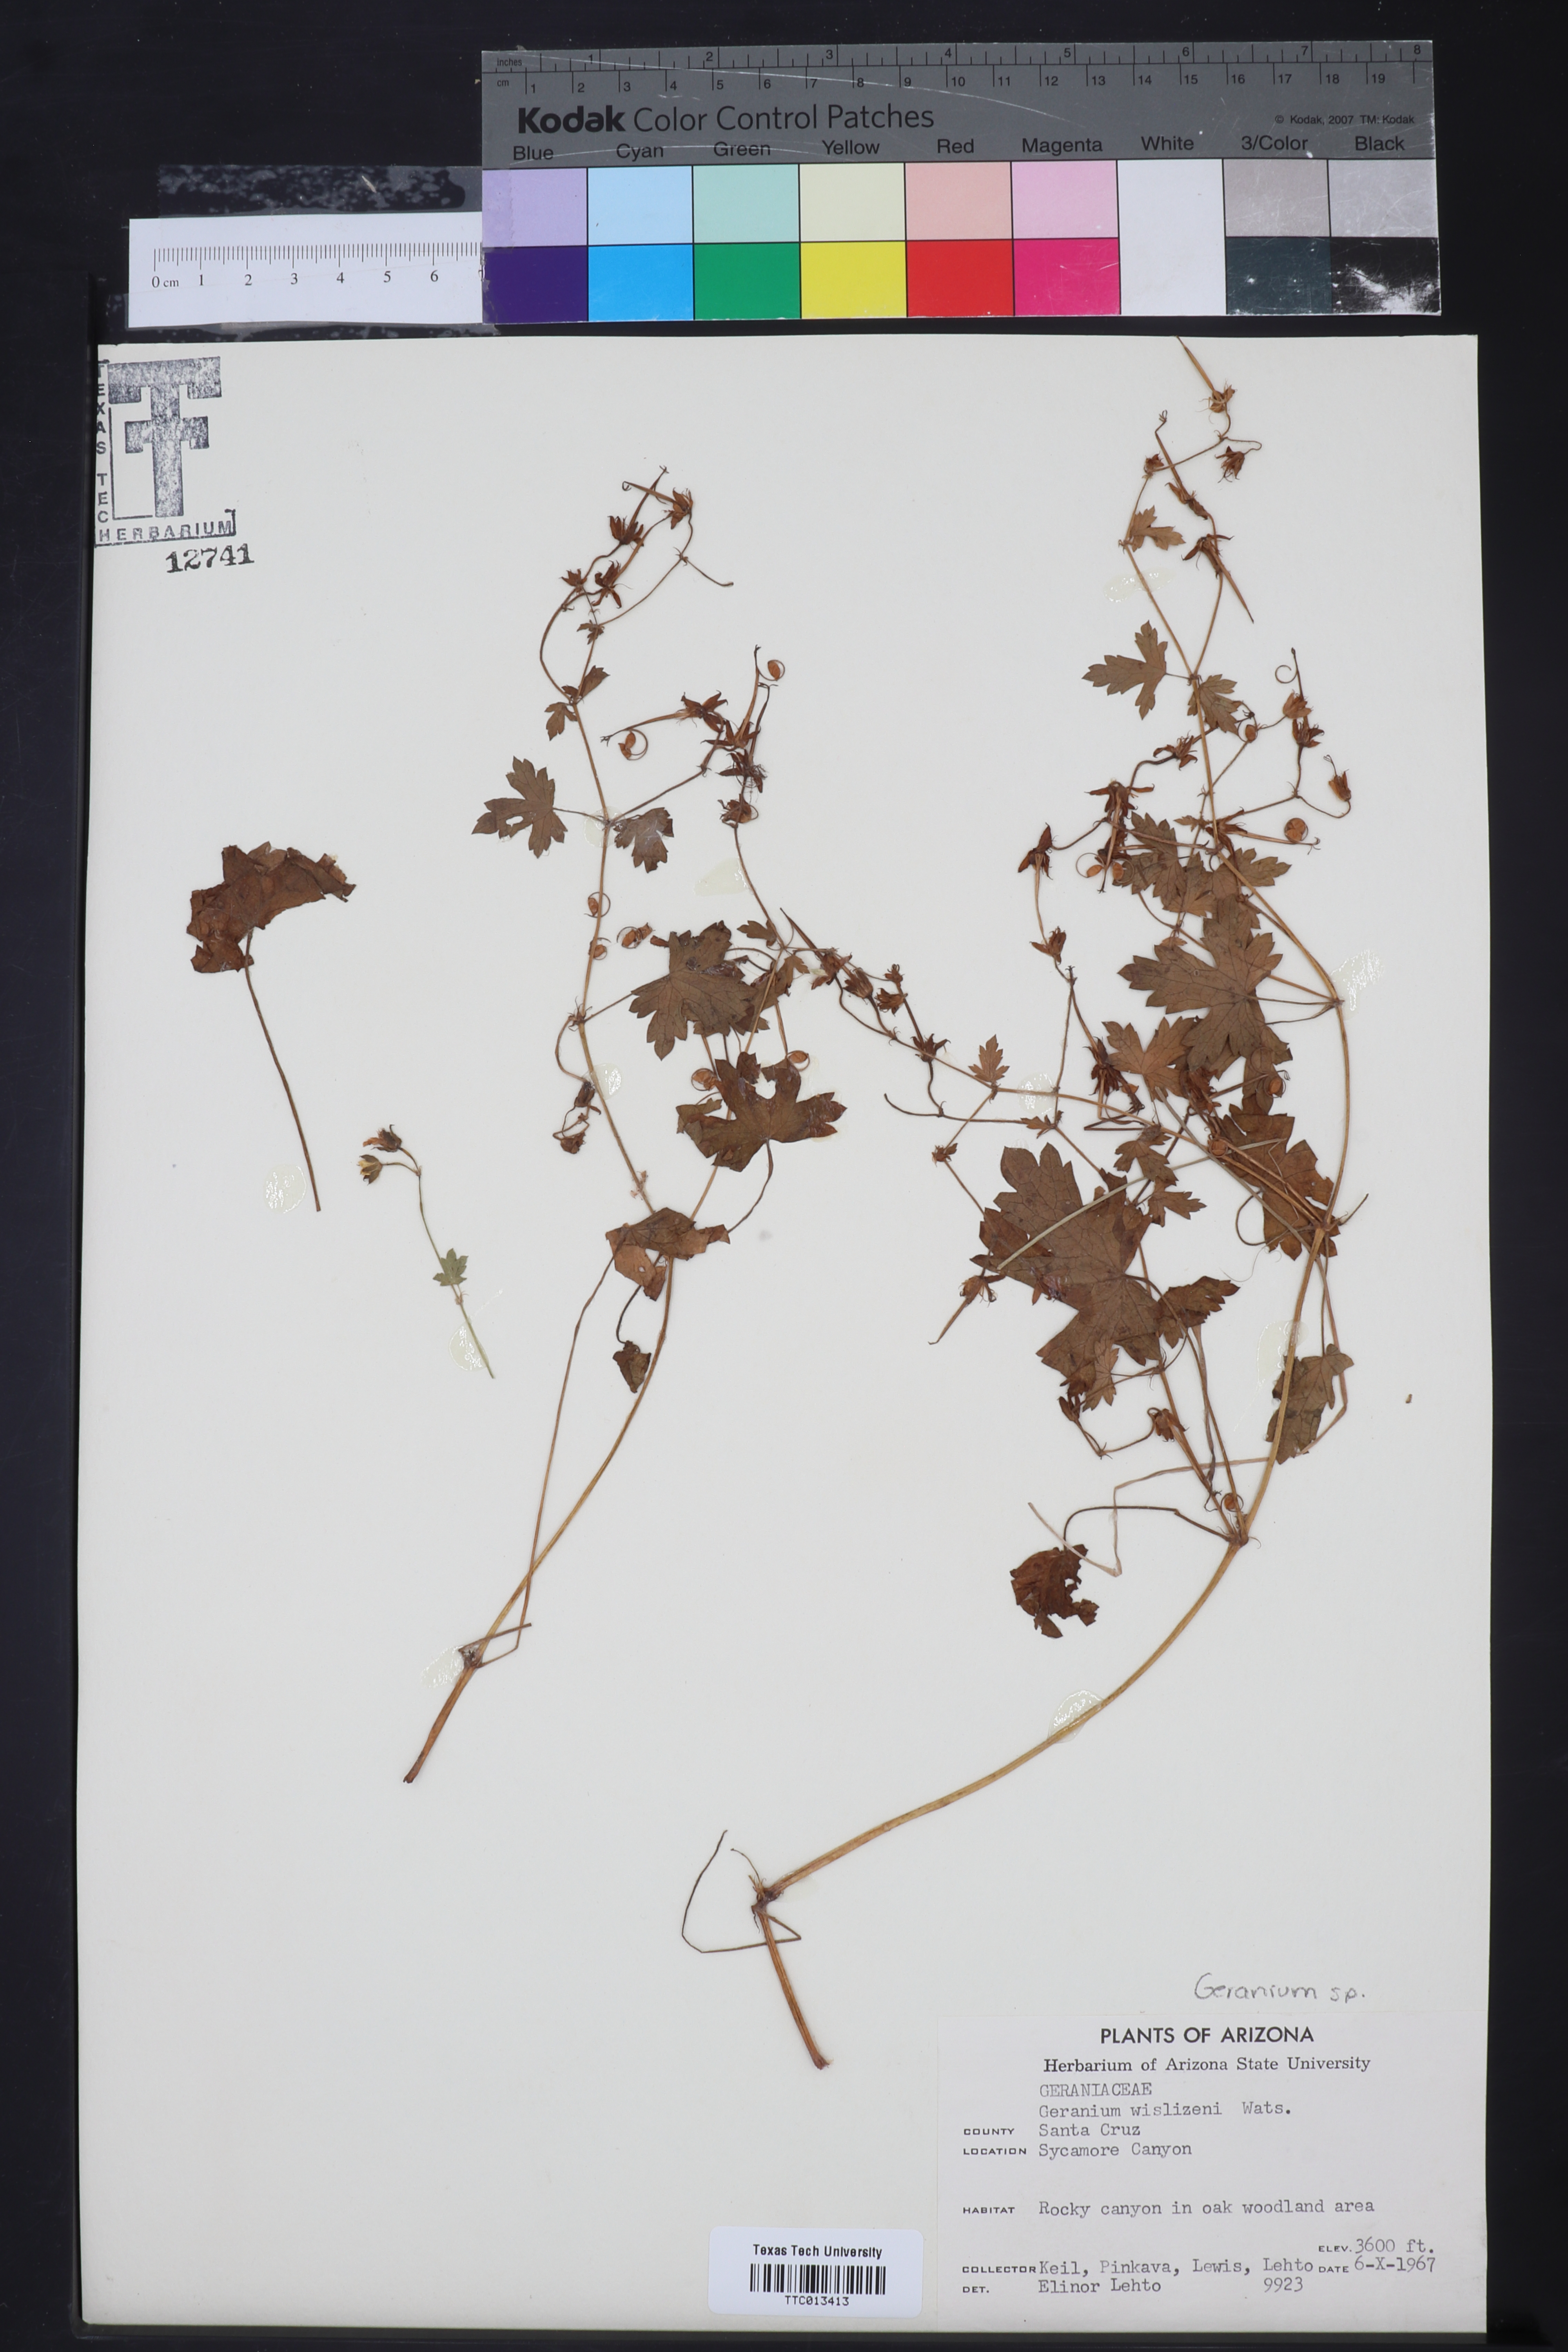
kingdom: Plantae
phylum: Tracheophyta
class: Magnoliopsida
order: Geraniales
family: Geraniaceae
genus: Geranium
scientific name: Geranium wislizeni
